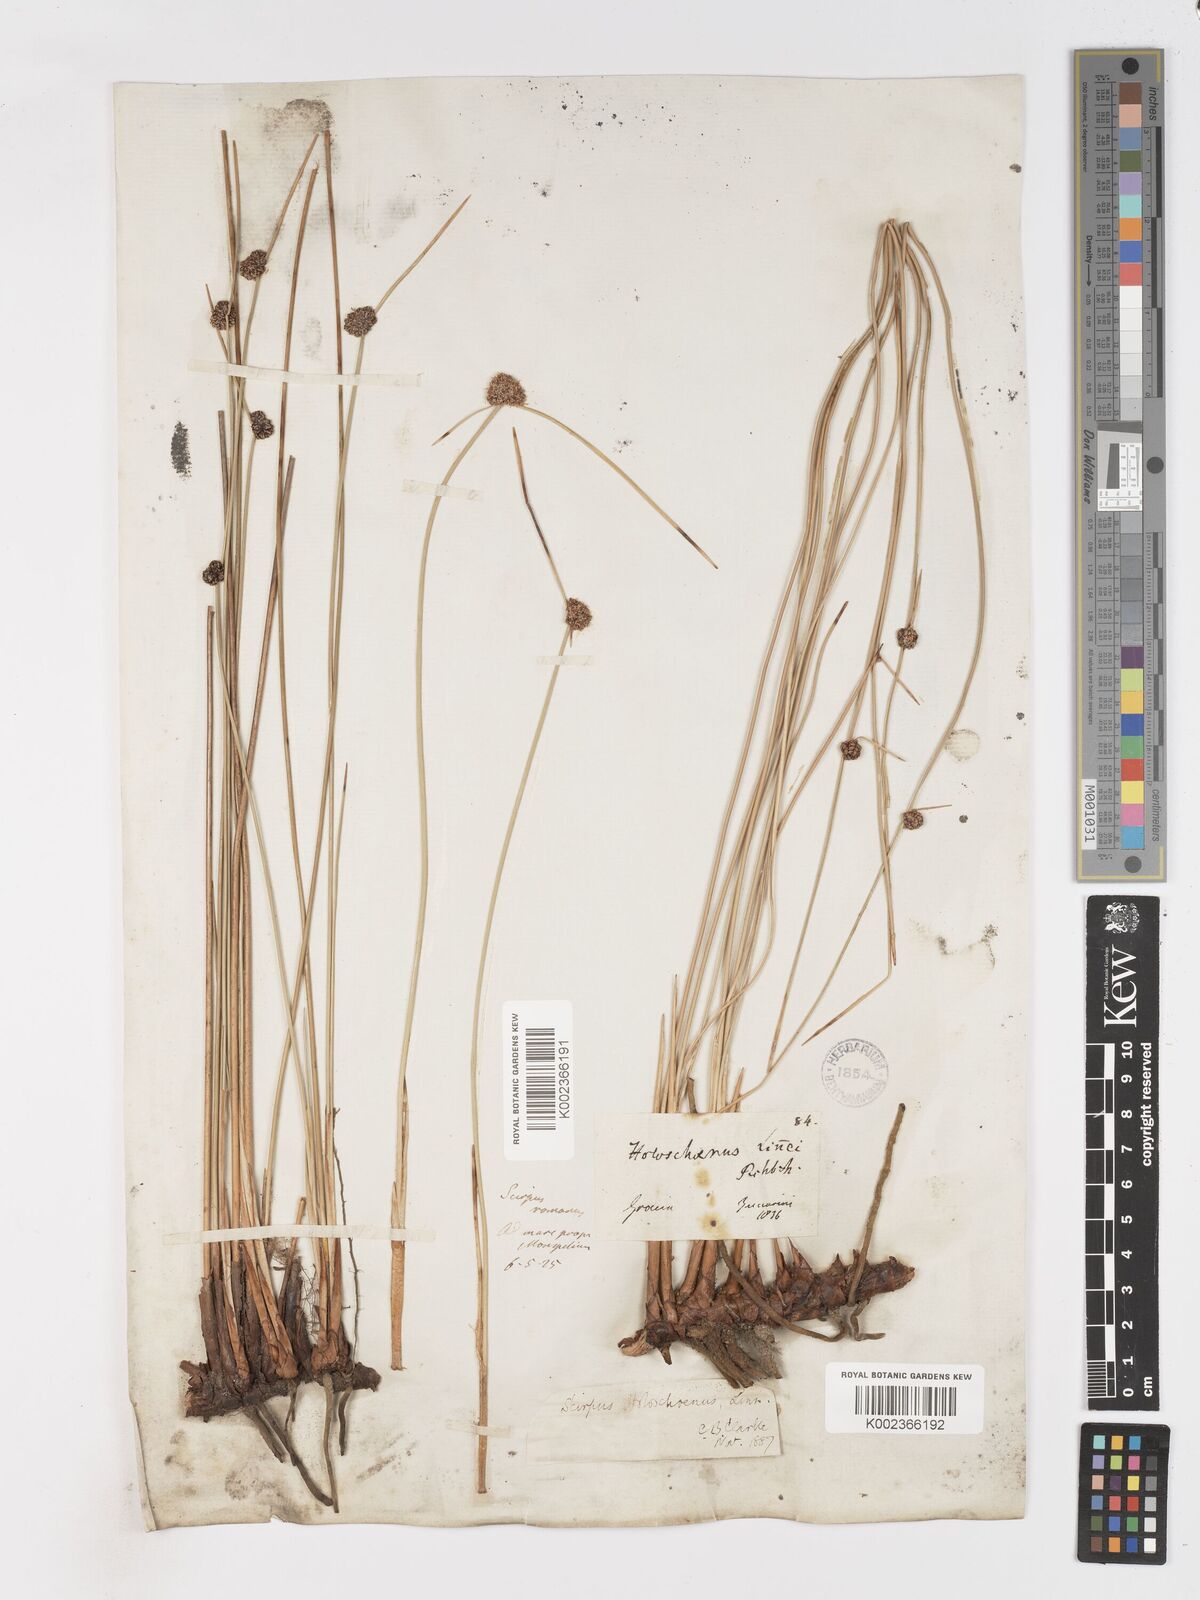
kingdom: Plantae
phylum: Tracheophyta
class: Liliopsida
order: Poales
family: Cyperaceae
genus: Scirpoides
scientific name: Scirpoides holoschoenus
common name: Round-headed club-rush
